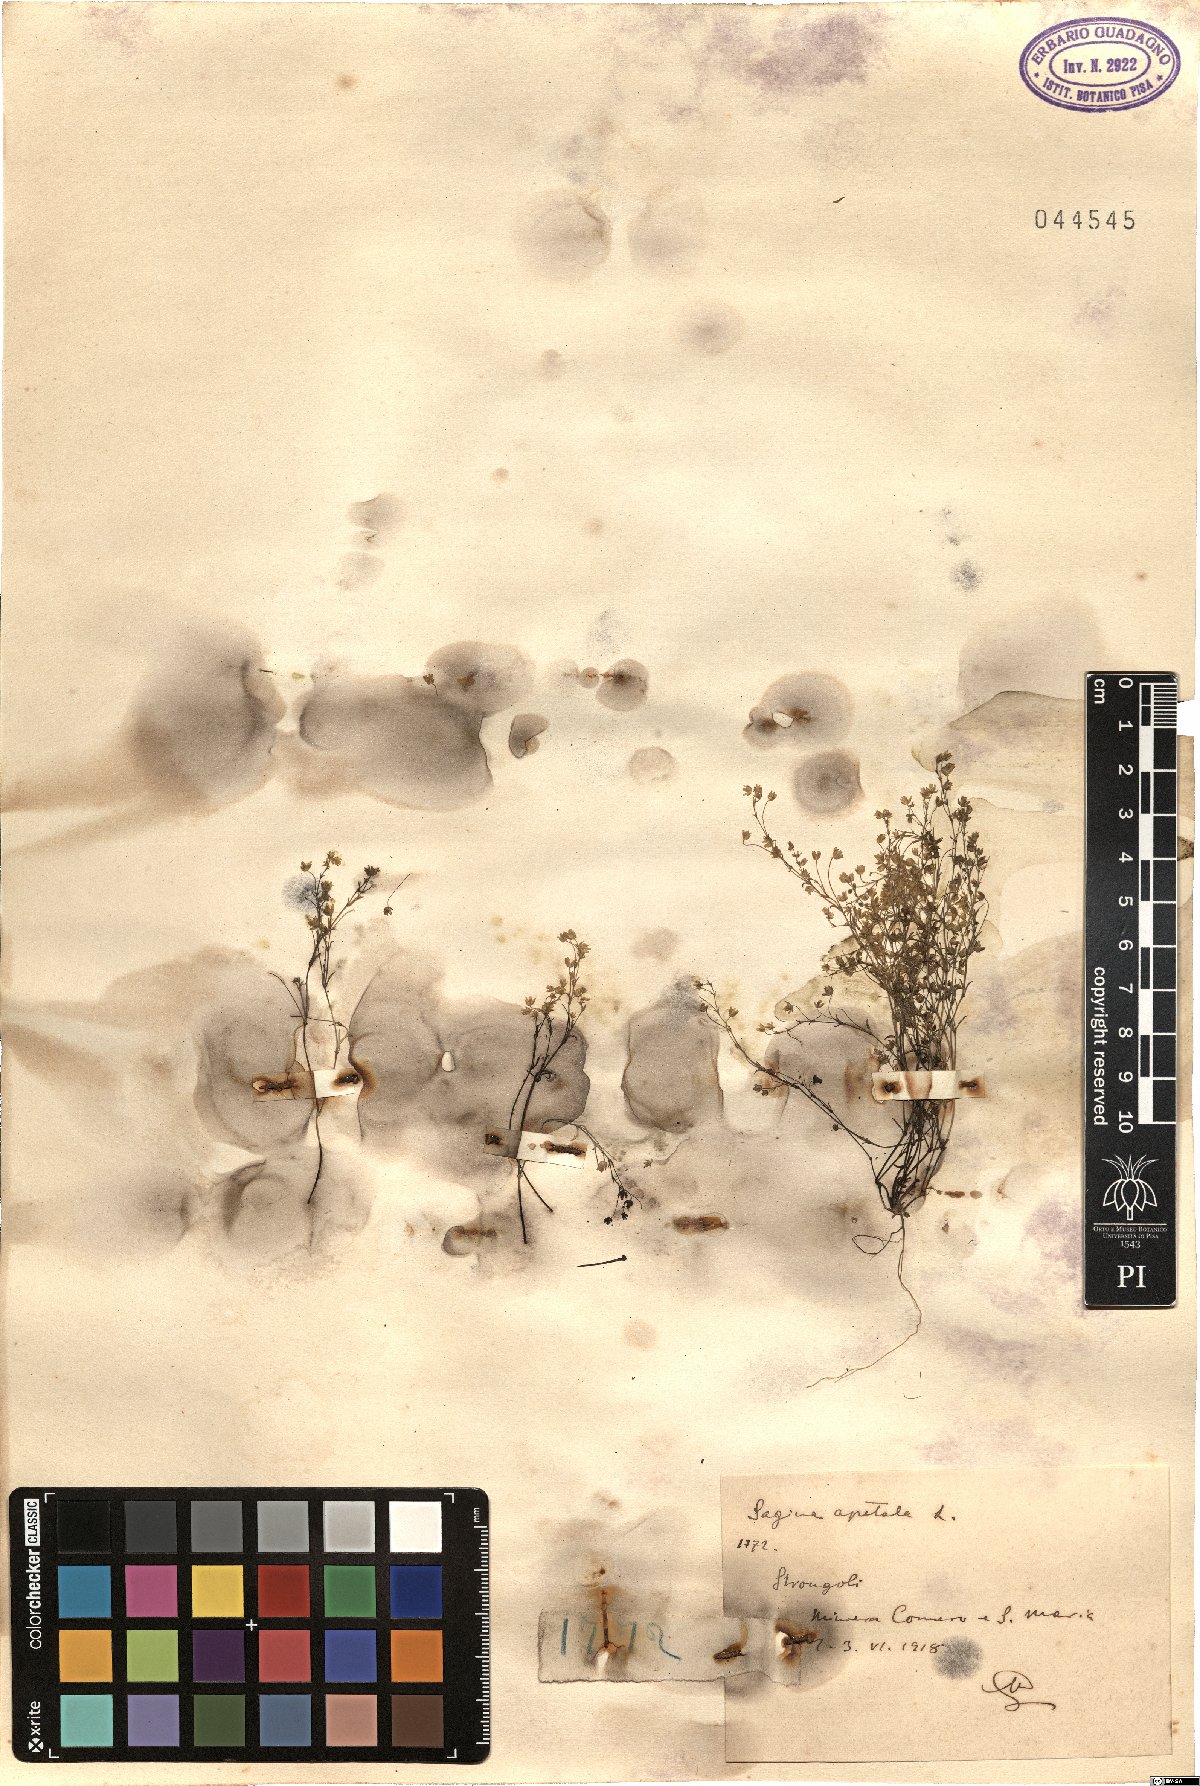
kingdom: Plantae
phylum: Tracheophyta
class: Magnoliopsida
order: Caryophyllales
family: Caryophyllaceae
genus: Sagina
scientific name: Sagina apetala
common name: Annual pearlwort
